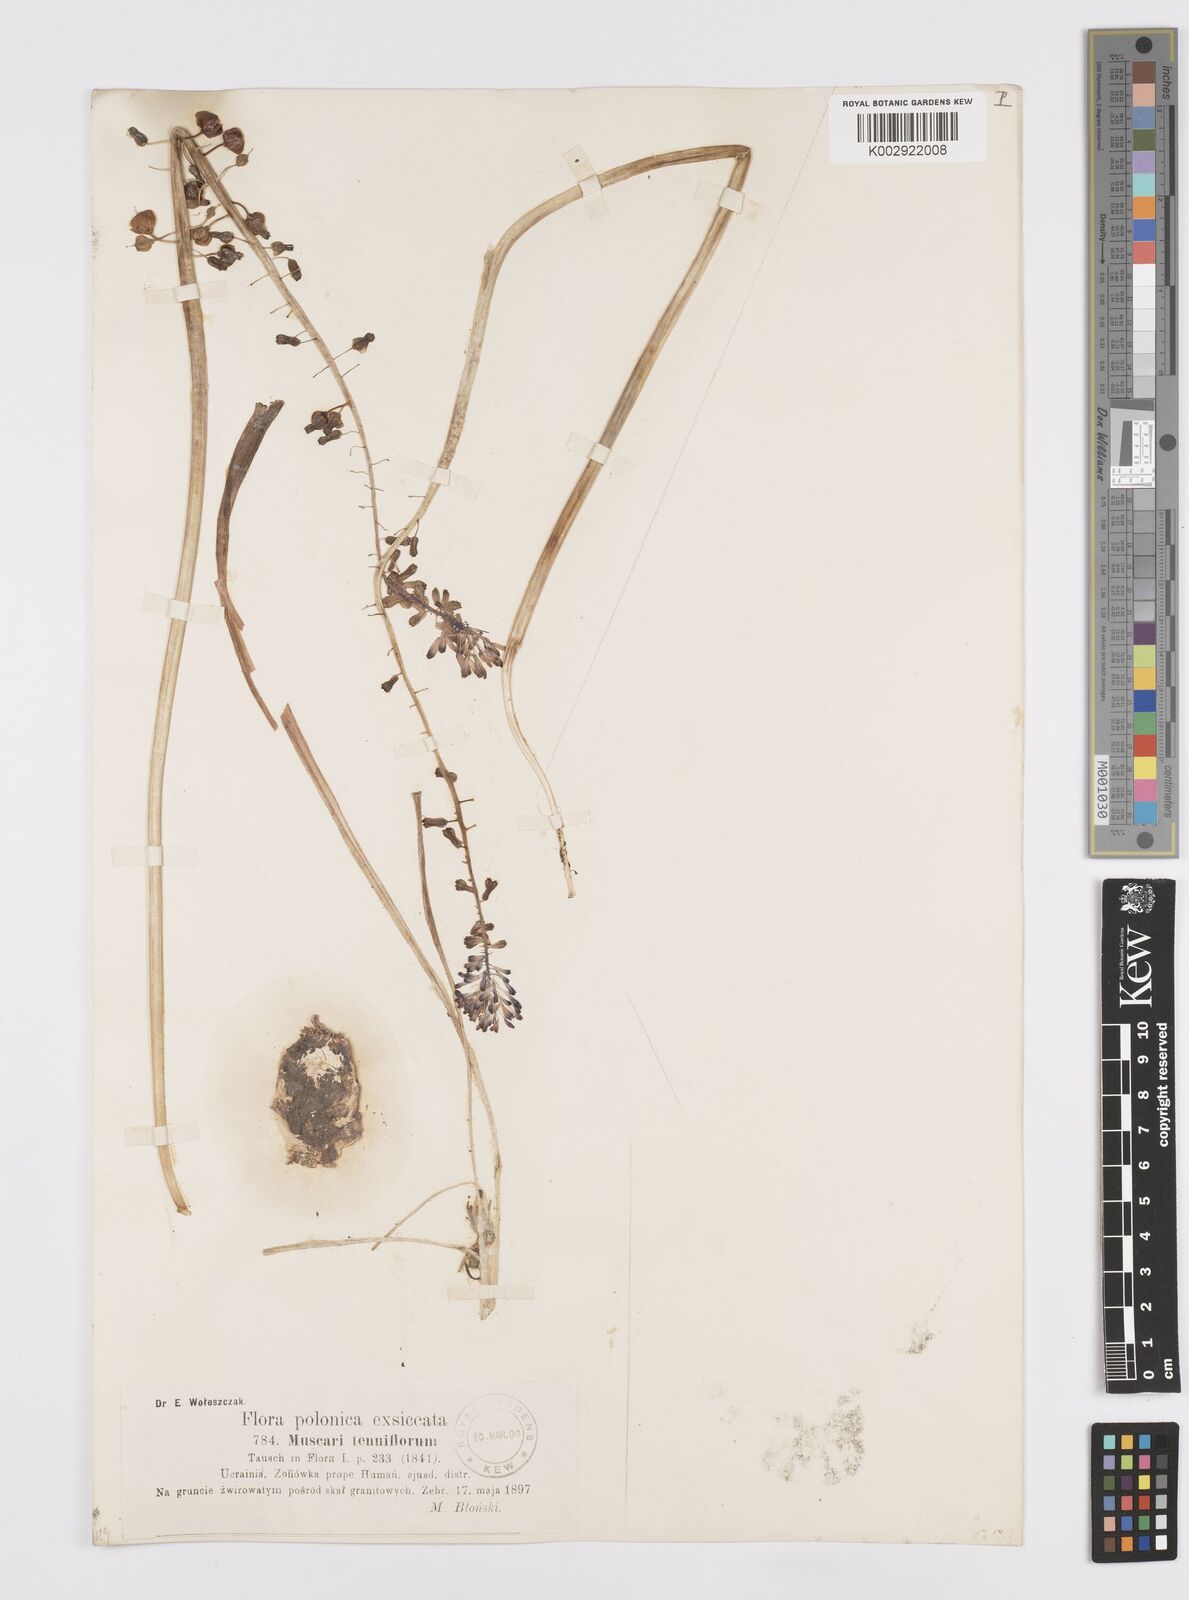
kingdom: Plantae
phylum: Tracheophyta
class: Liliopsida
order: Asparagales
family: Asparagaceae
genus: Muscari
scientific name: Muscari tenuiflorum
